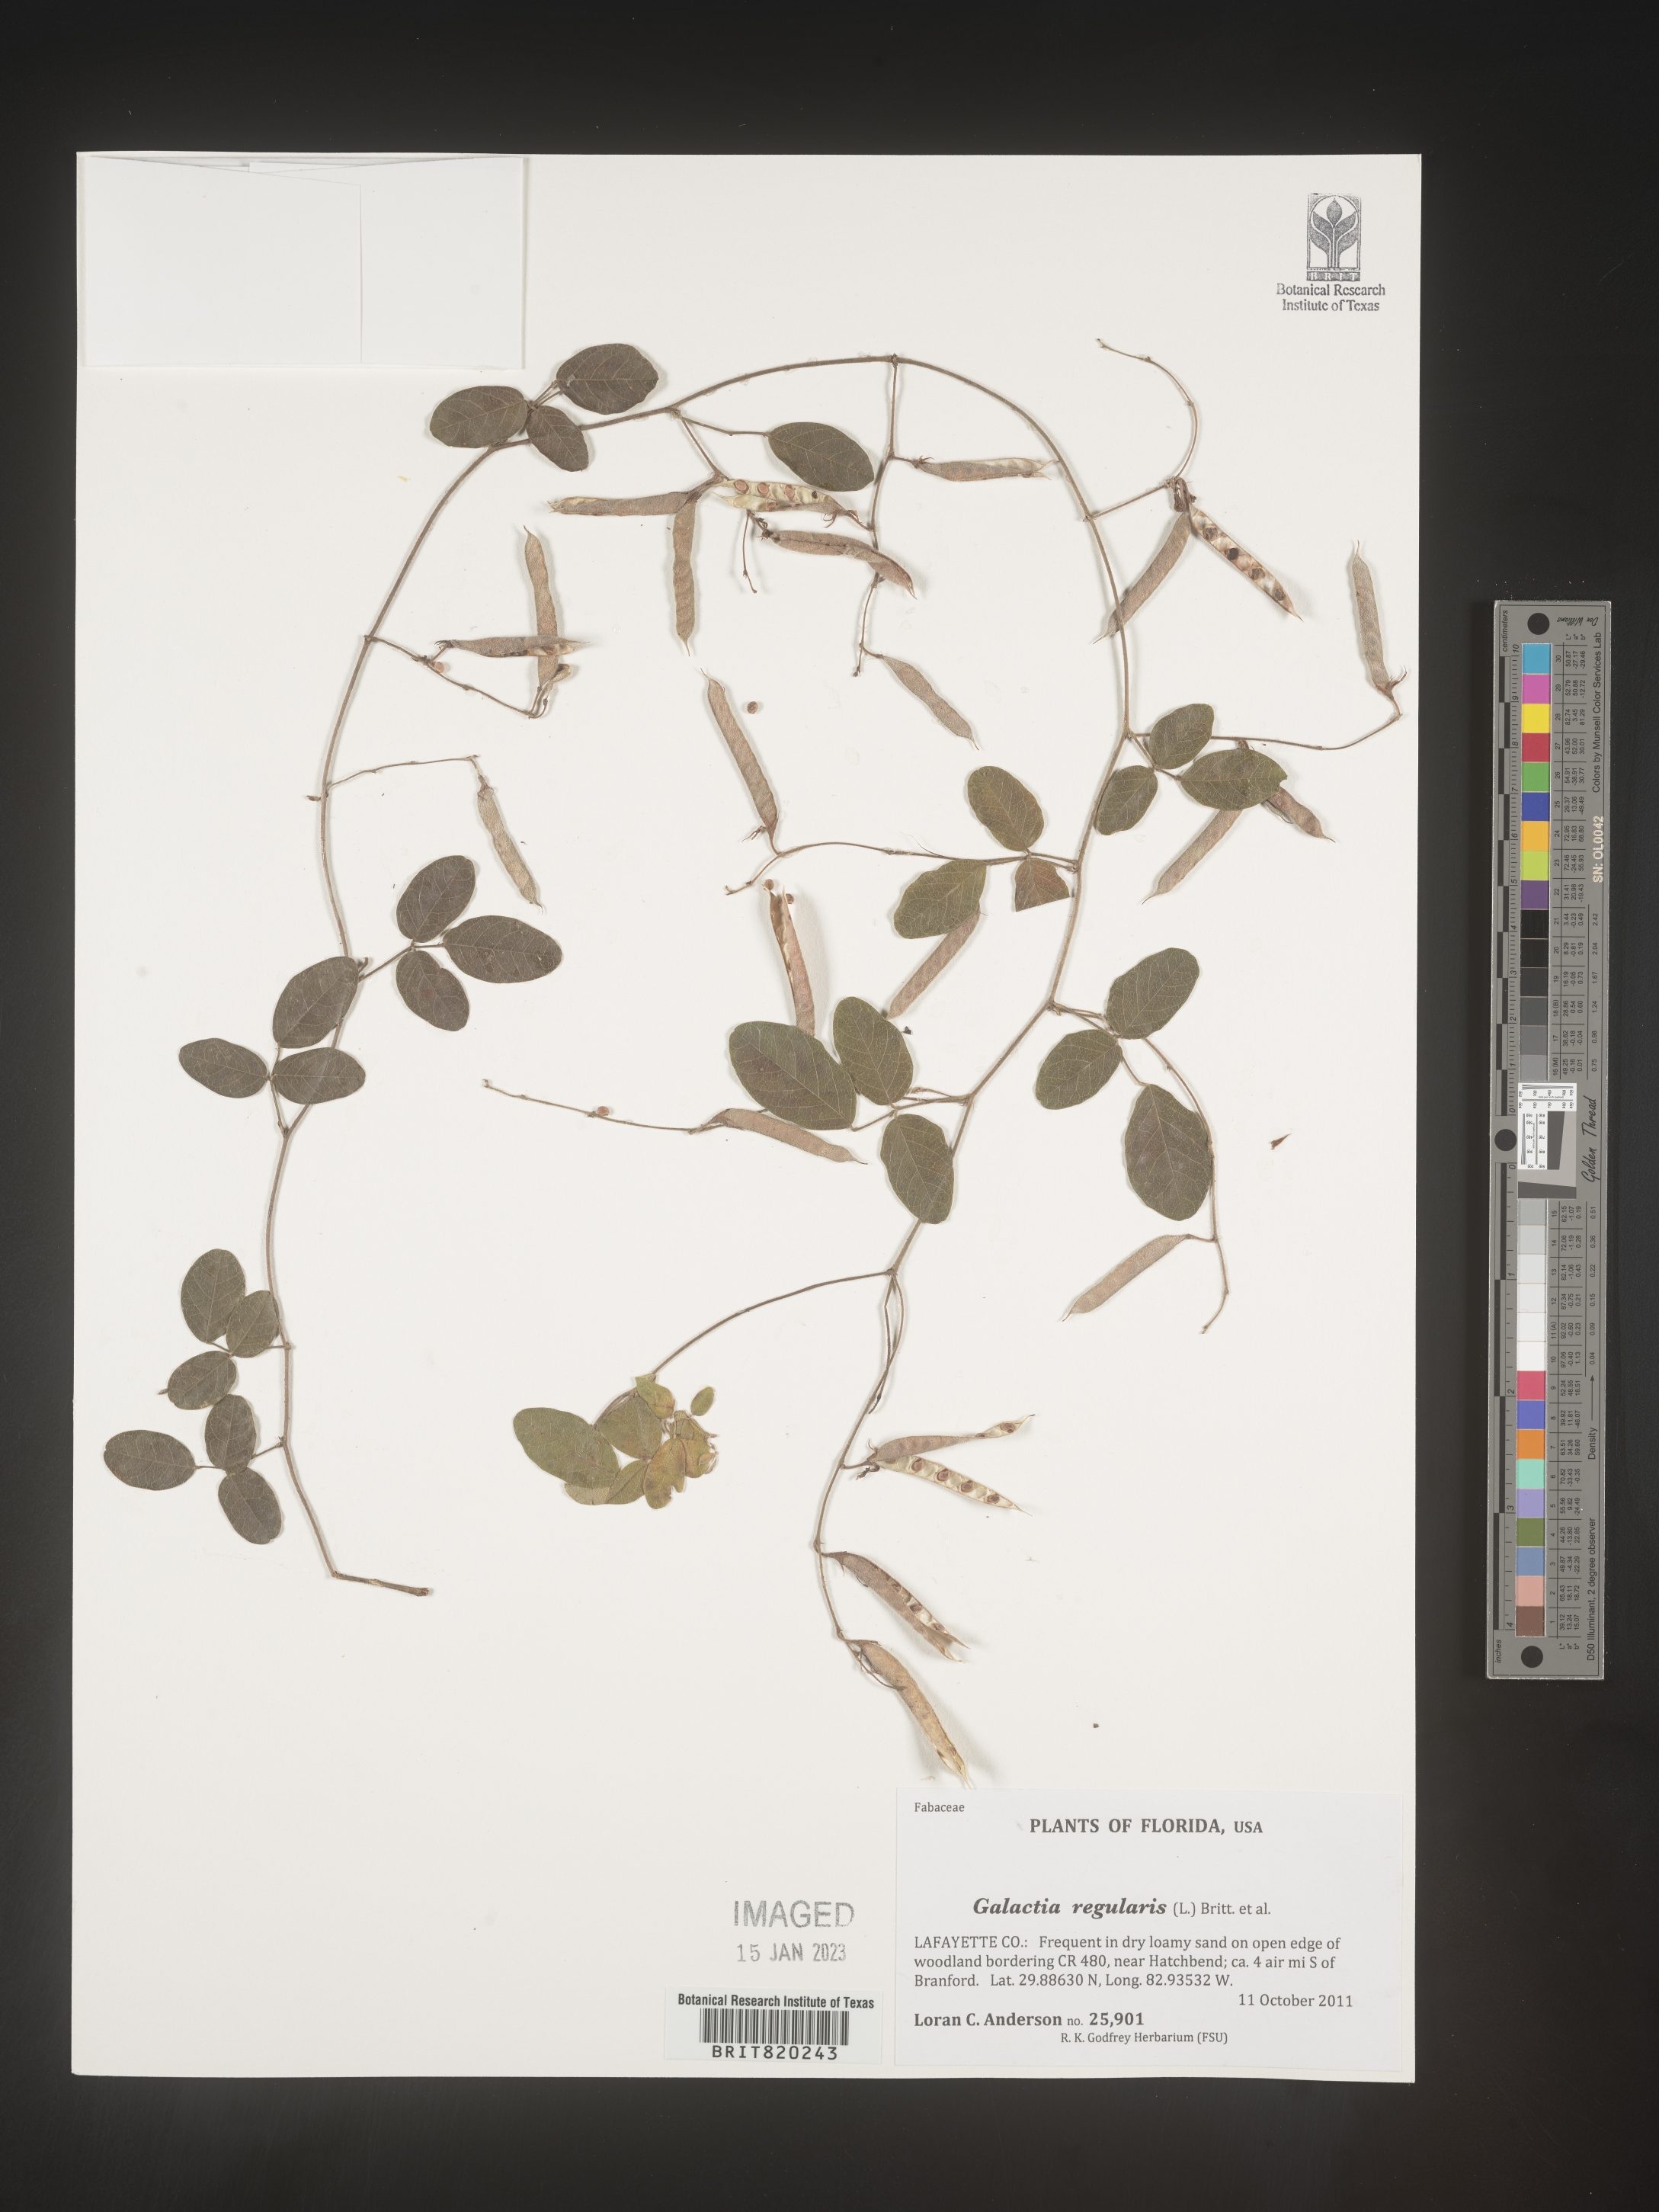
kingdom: Plantae
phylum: Tracheophyta
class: Magnoliopsida
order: Fabales
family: Fabaceae
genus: Galactia
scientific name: Galactia mollis
